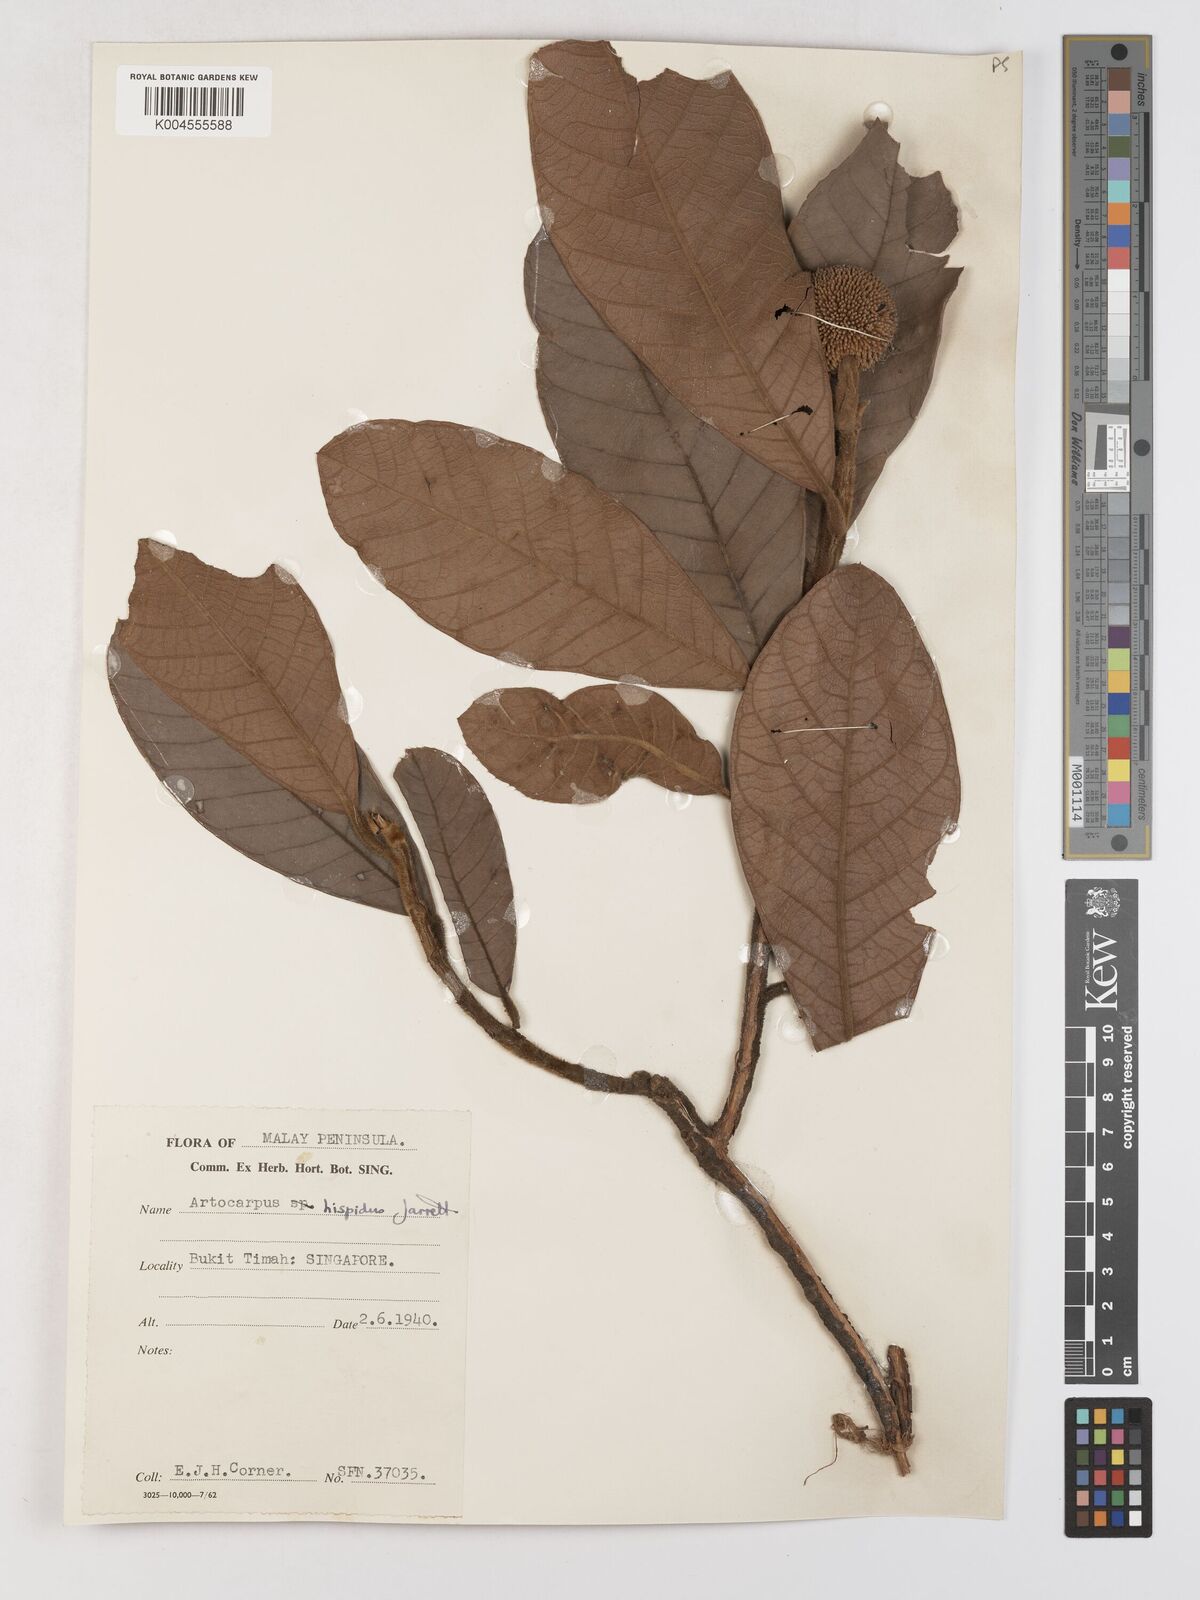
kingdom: Plantae
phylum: Tracheophyta
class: Magnoliopsida
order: Rosales
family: Moraceae
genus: Artocarpus
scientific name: Artocarpus hispidus
